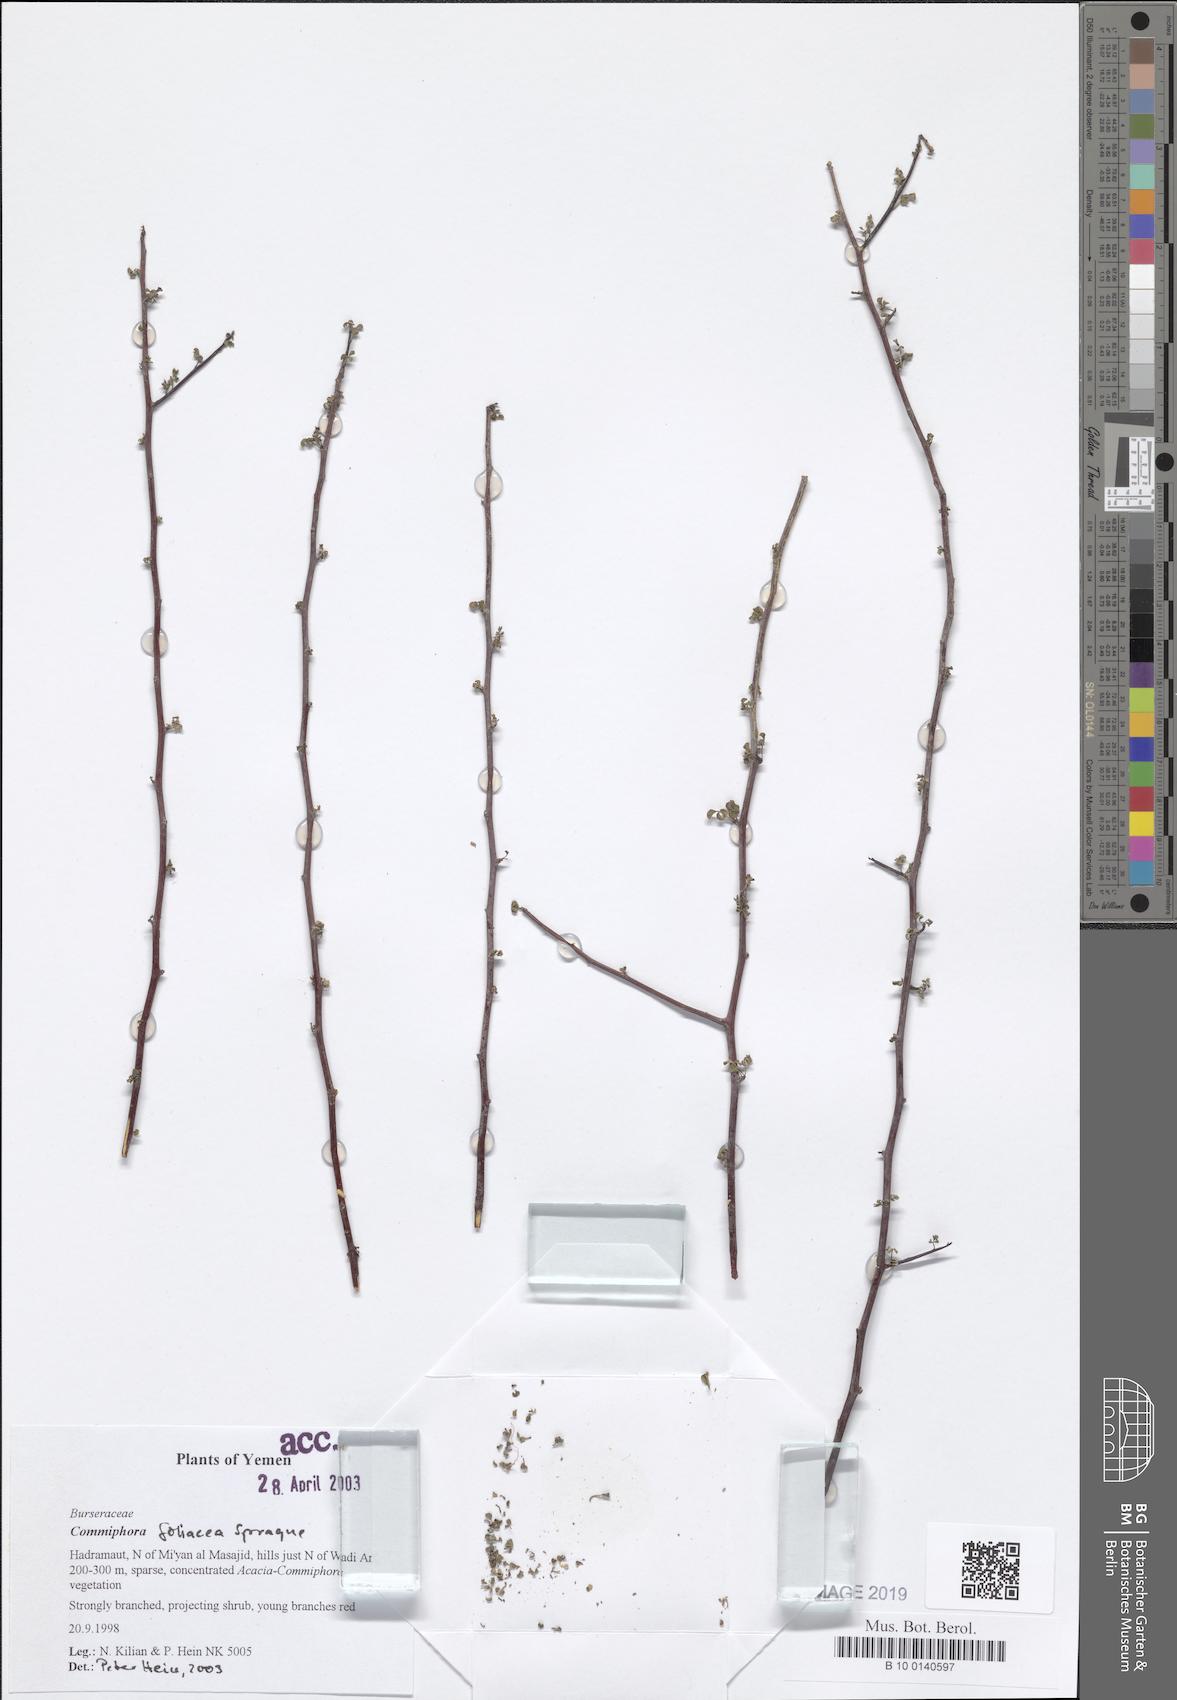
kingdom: Plantae
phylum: Tracheophyta
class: Magnoliopsida
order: Sapindales
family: Burseraceae
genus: Commiphora
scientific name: Commiphora foliacea
